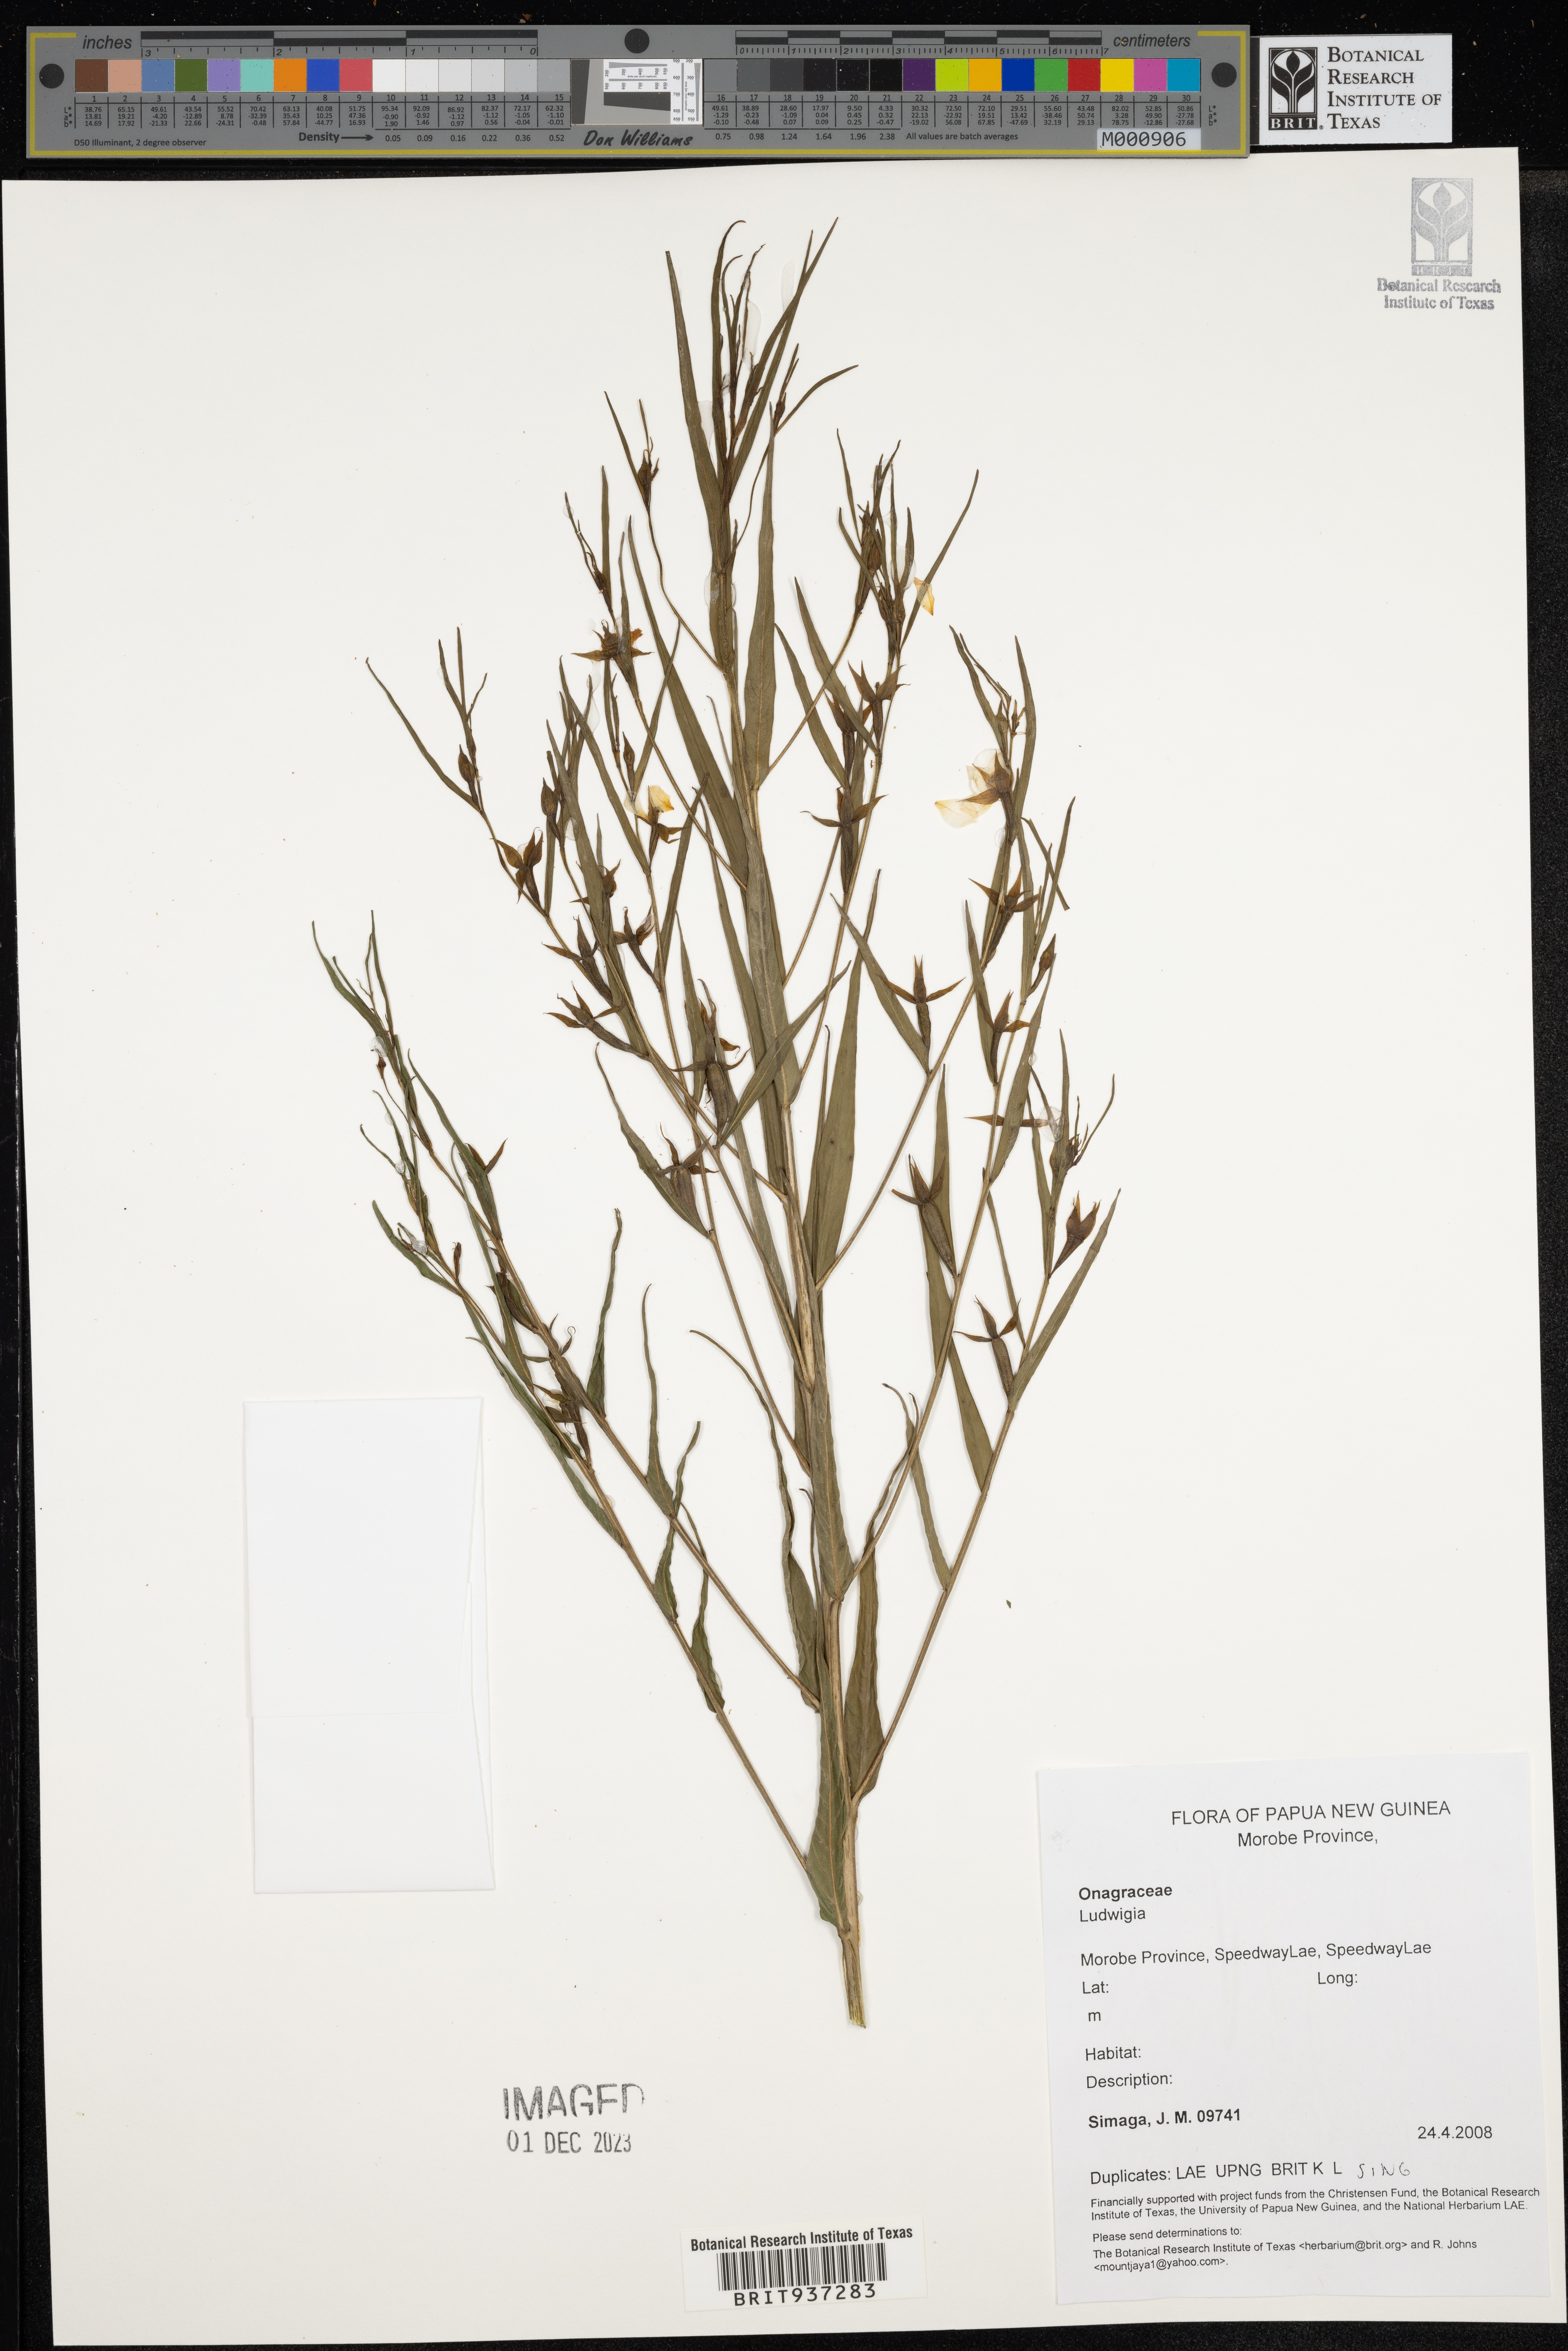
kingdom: Plantae
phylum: Tracheophyta
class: Magnoliopsida
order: Myrtales
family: Onagraceae
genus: Ludwigia
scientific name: Ludwigia
